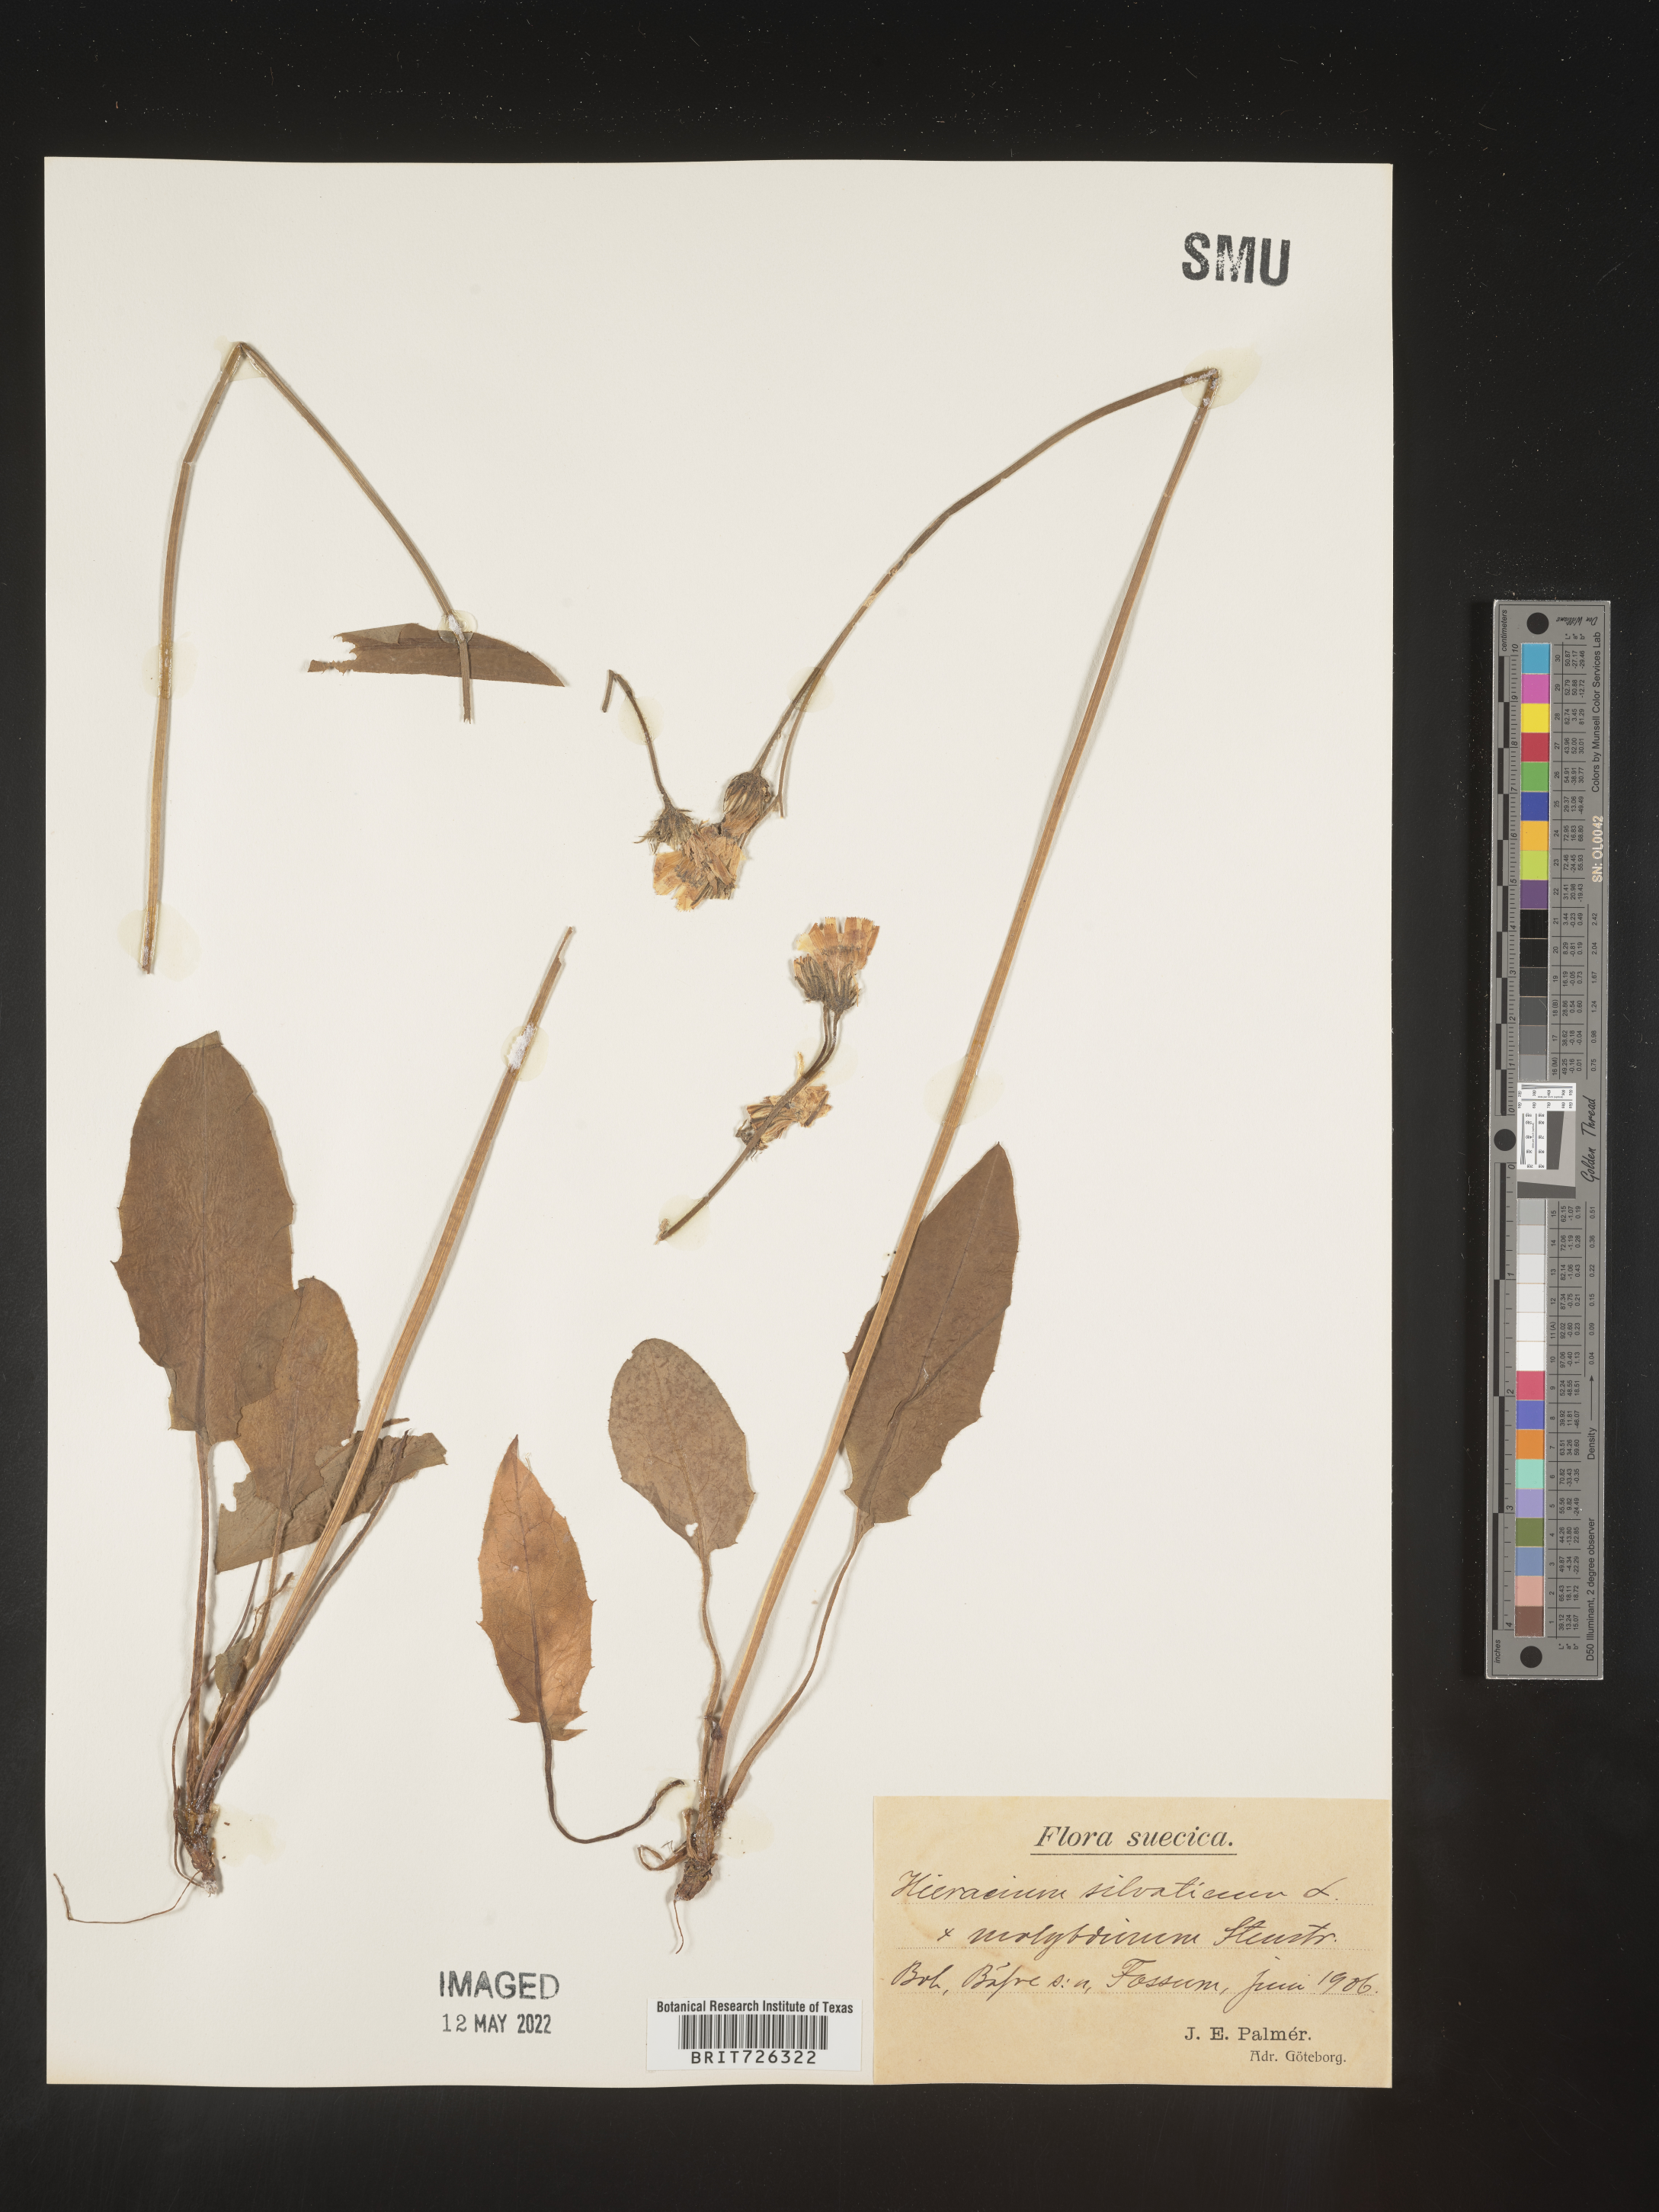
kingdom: Plantae
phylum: Tracheophyta
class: Magnoliopsida
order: Asterales
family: Asteraceae
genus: Hieracium
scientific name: Hieracium
